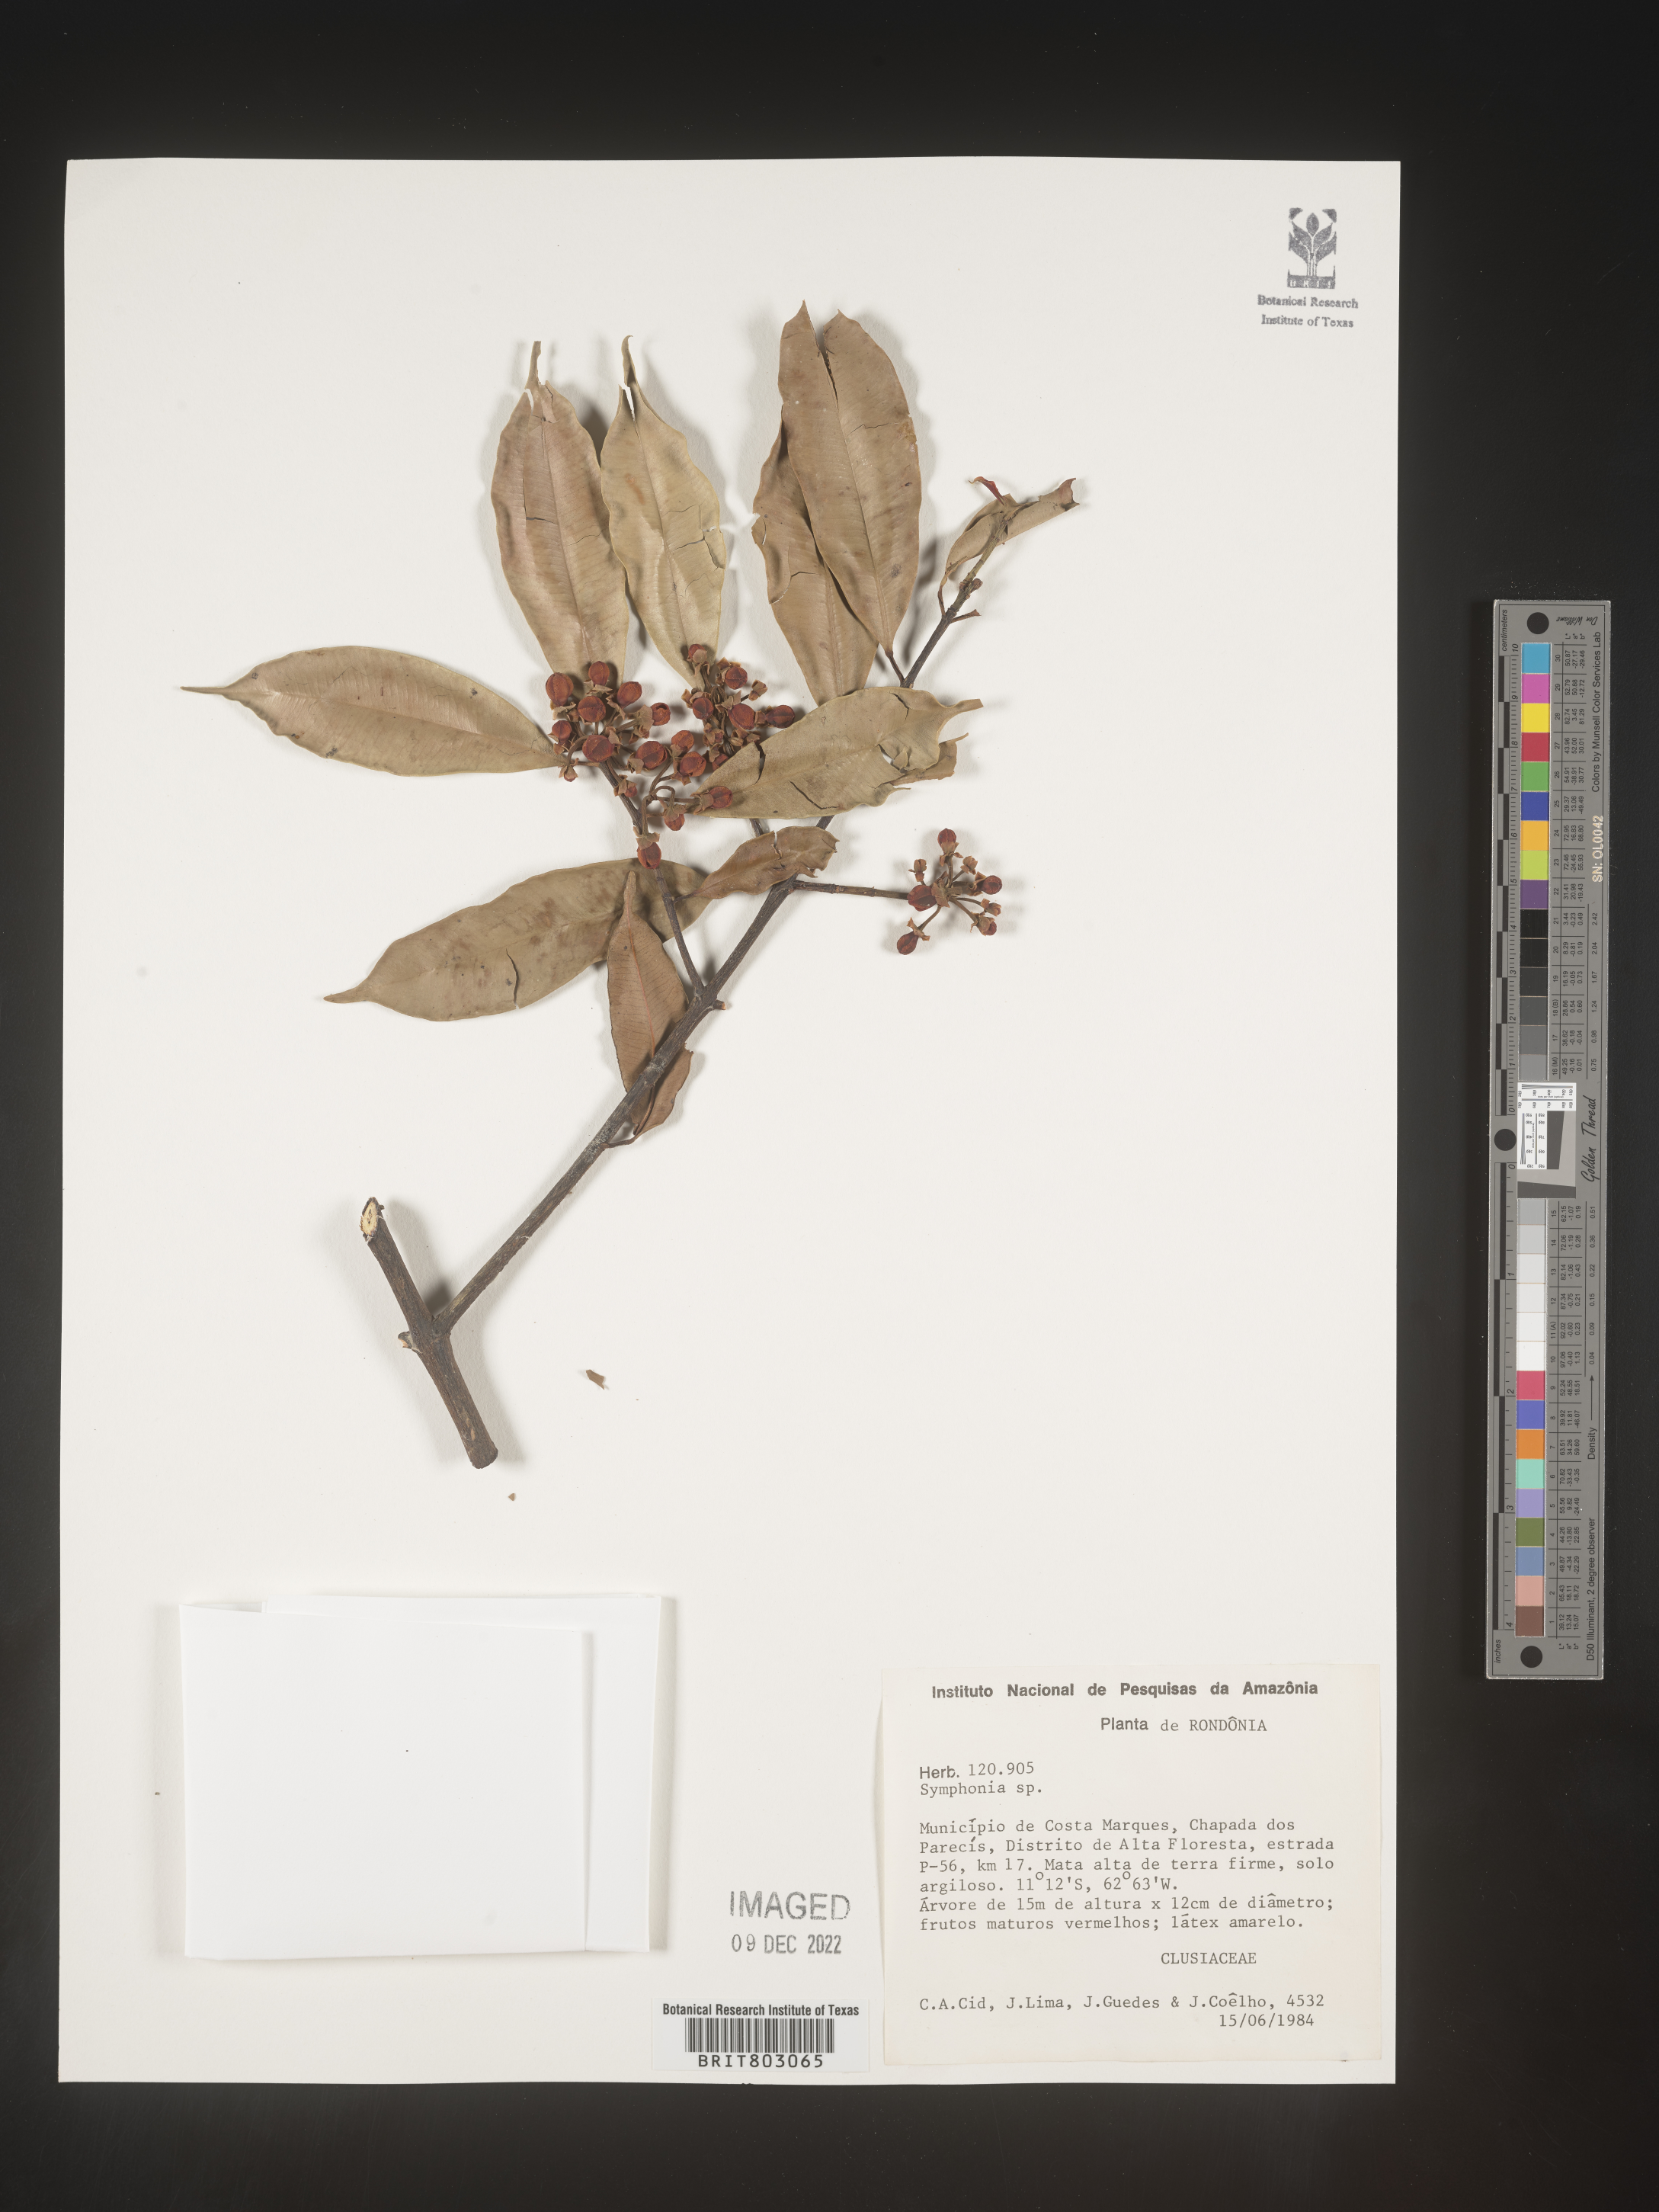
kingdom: Plantae
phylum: Tracheophyta
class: Magnoliopsida
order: Malpighiales
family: Clusiaceae
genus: Symphonia
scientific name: Symphonia
